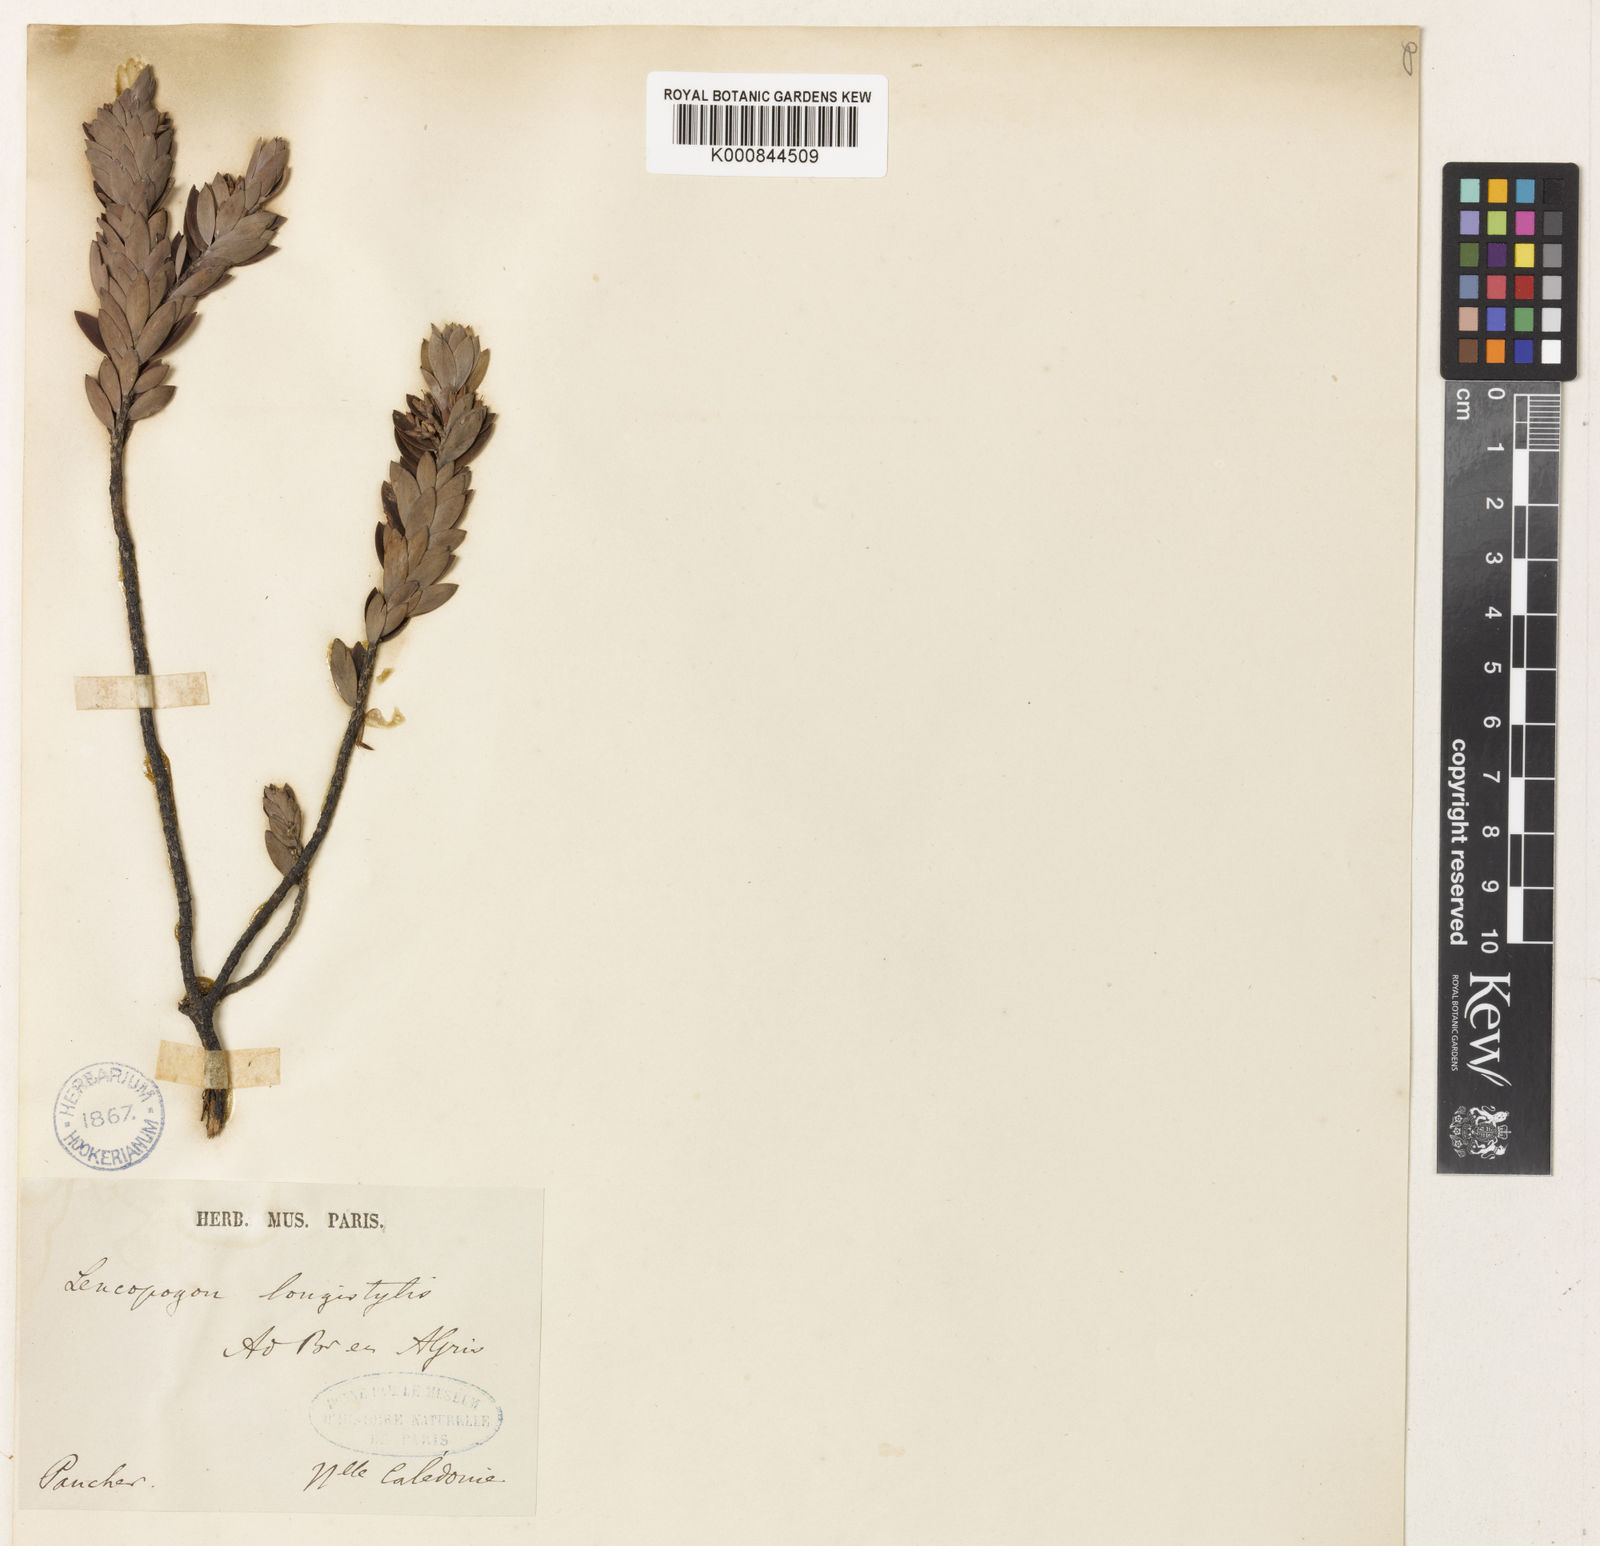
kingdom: Plantae
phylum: Tracheophyta
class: Magnoliopsida
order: Ericales
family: Ericaceae
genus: Styphelia
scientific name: Styphelia longistylis
